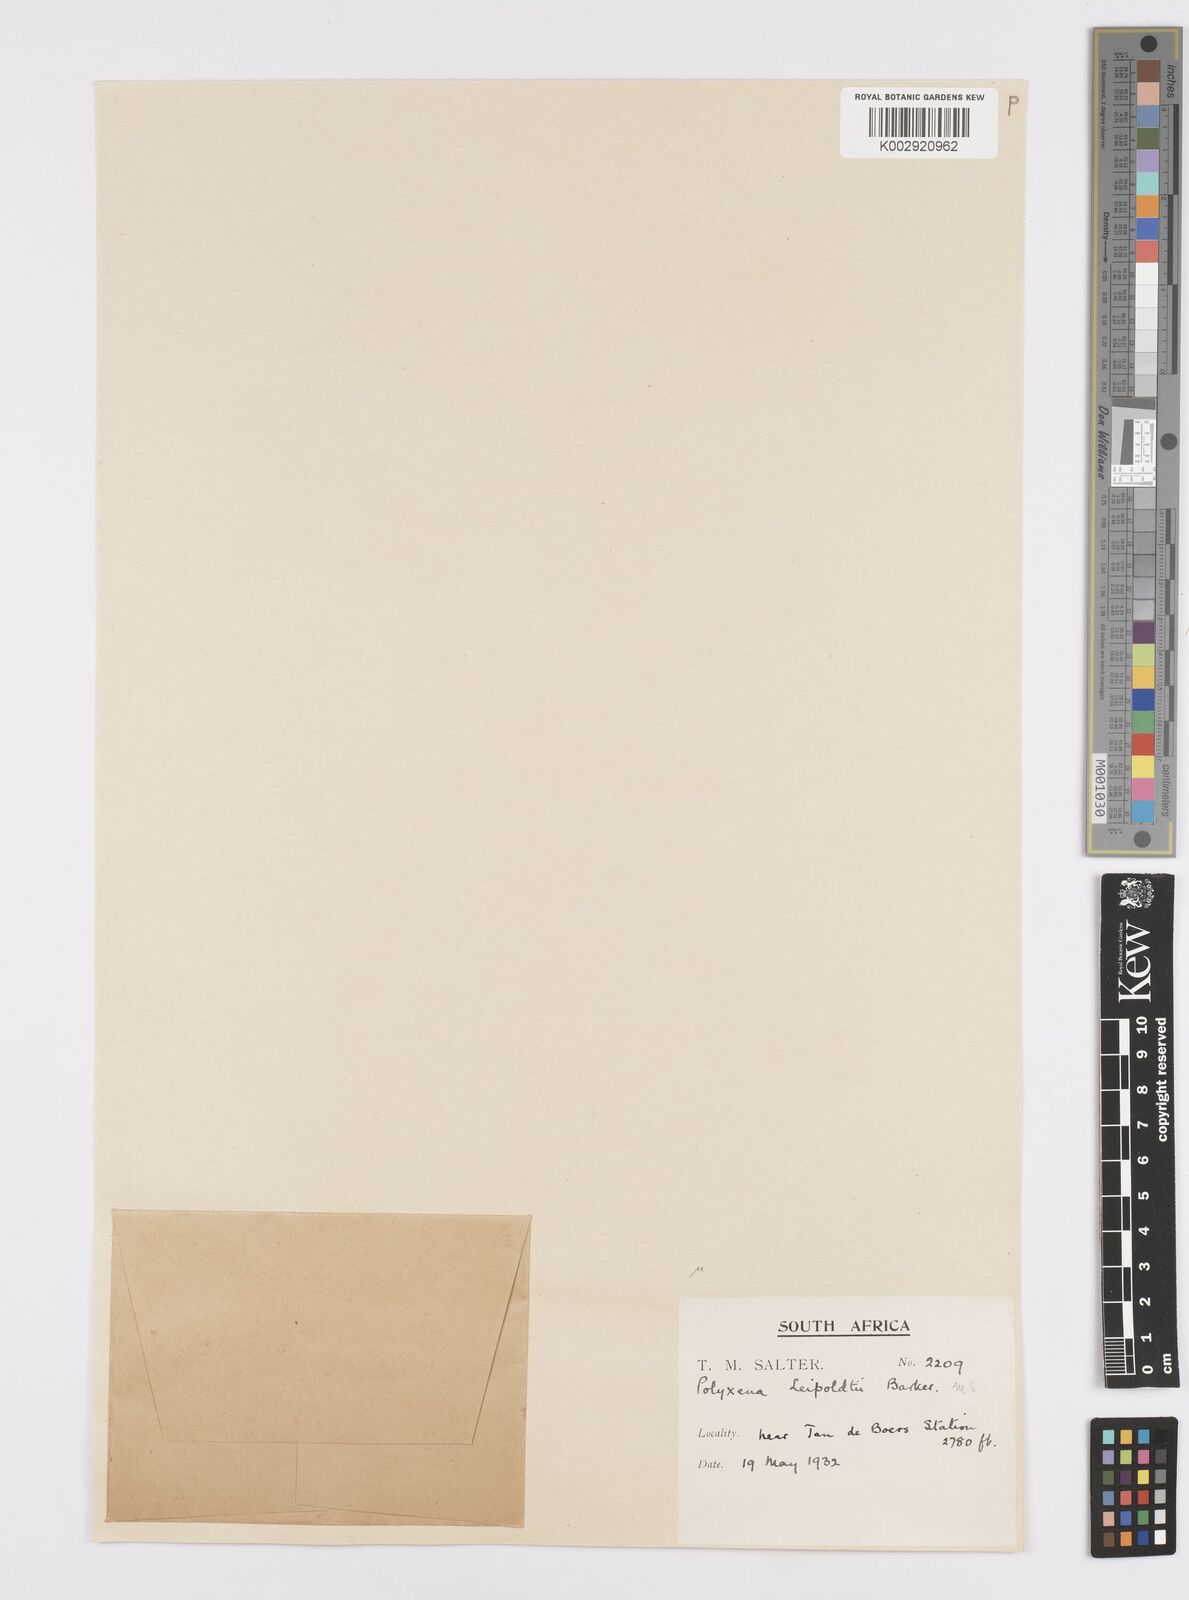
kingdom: Plantae
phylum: Tracheophyta
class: Liliopsida
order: Asparagales
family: Asparagaceae
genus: Lachenalia
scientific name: Lachenalia ensifolia
